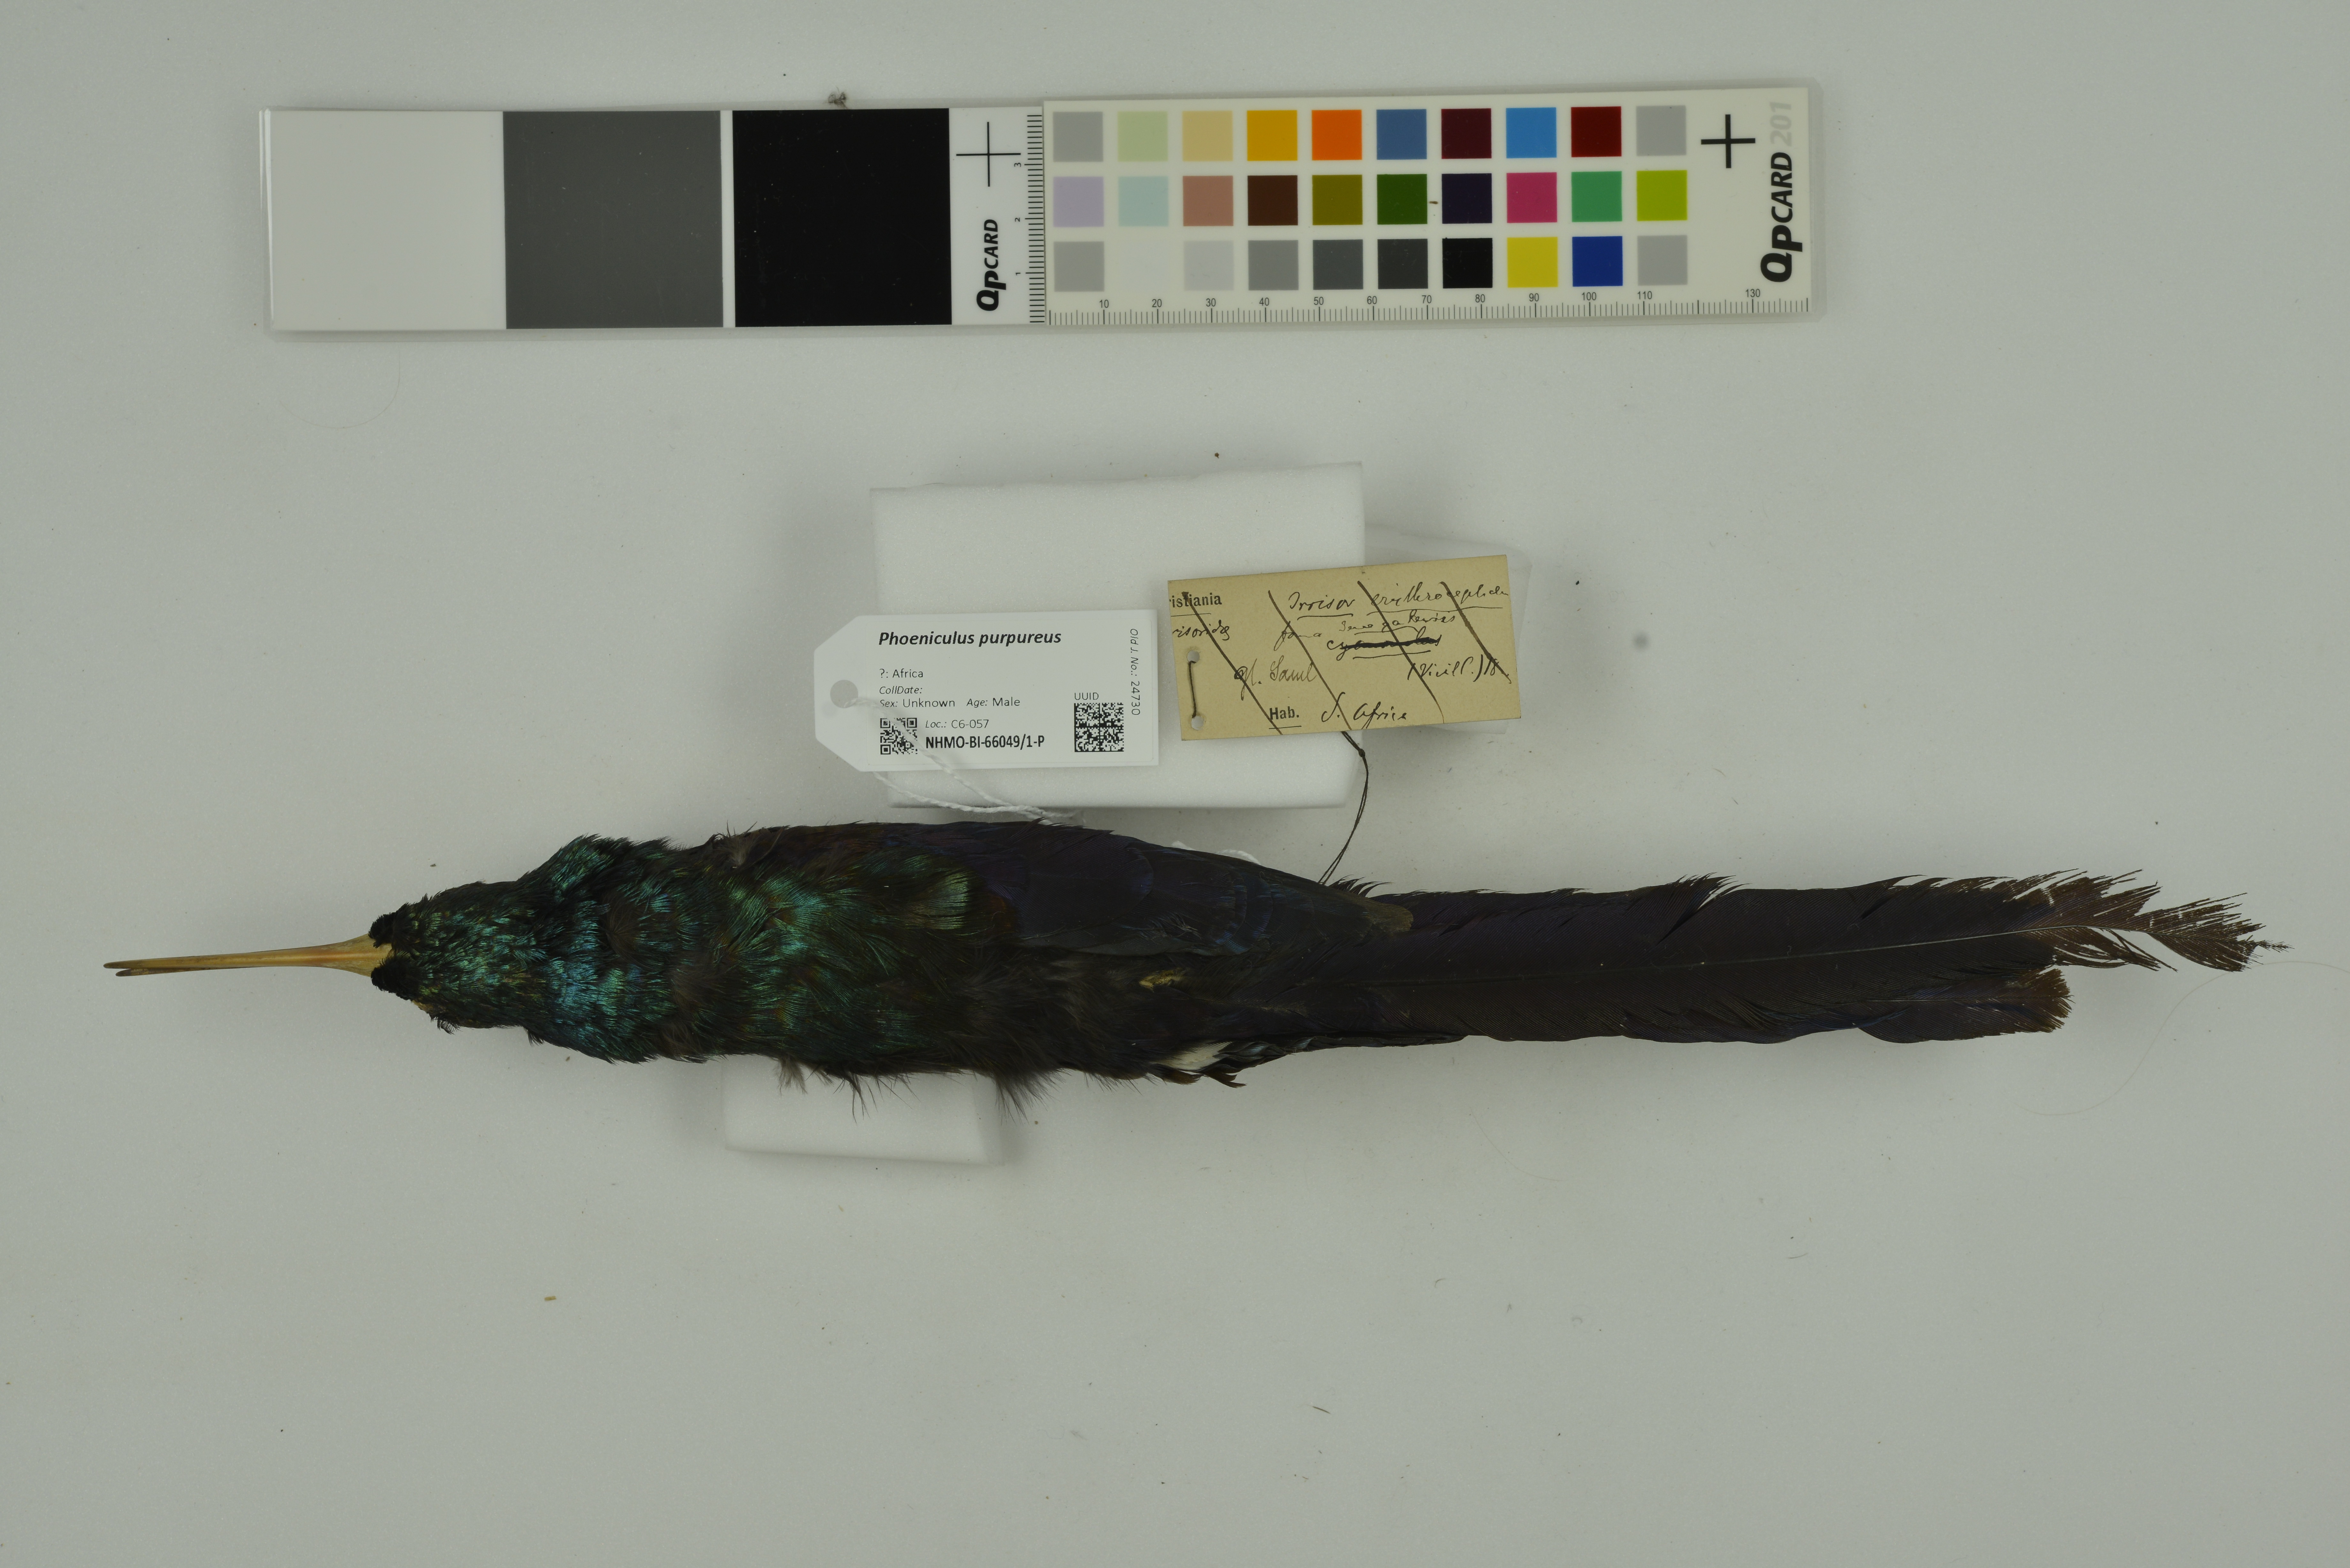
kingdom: Animalia
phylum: Chordata
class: Aves
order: Bucerotiformes
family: Phoeniculidae
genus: Phoeniculus
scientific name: Phoeniculus purpureus
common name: Green woodhoopoe
